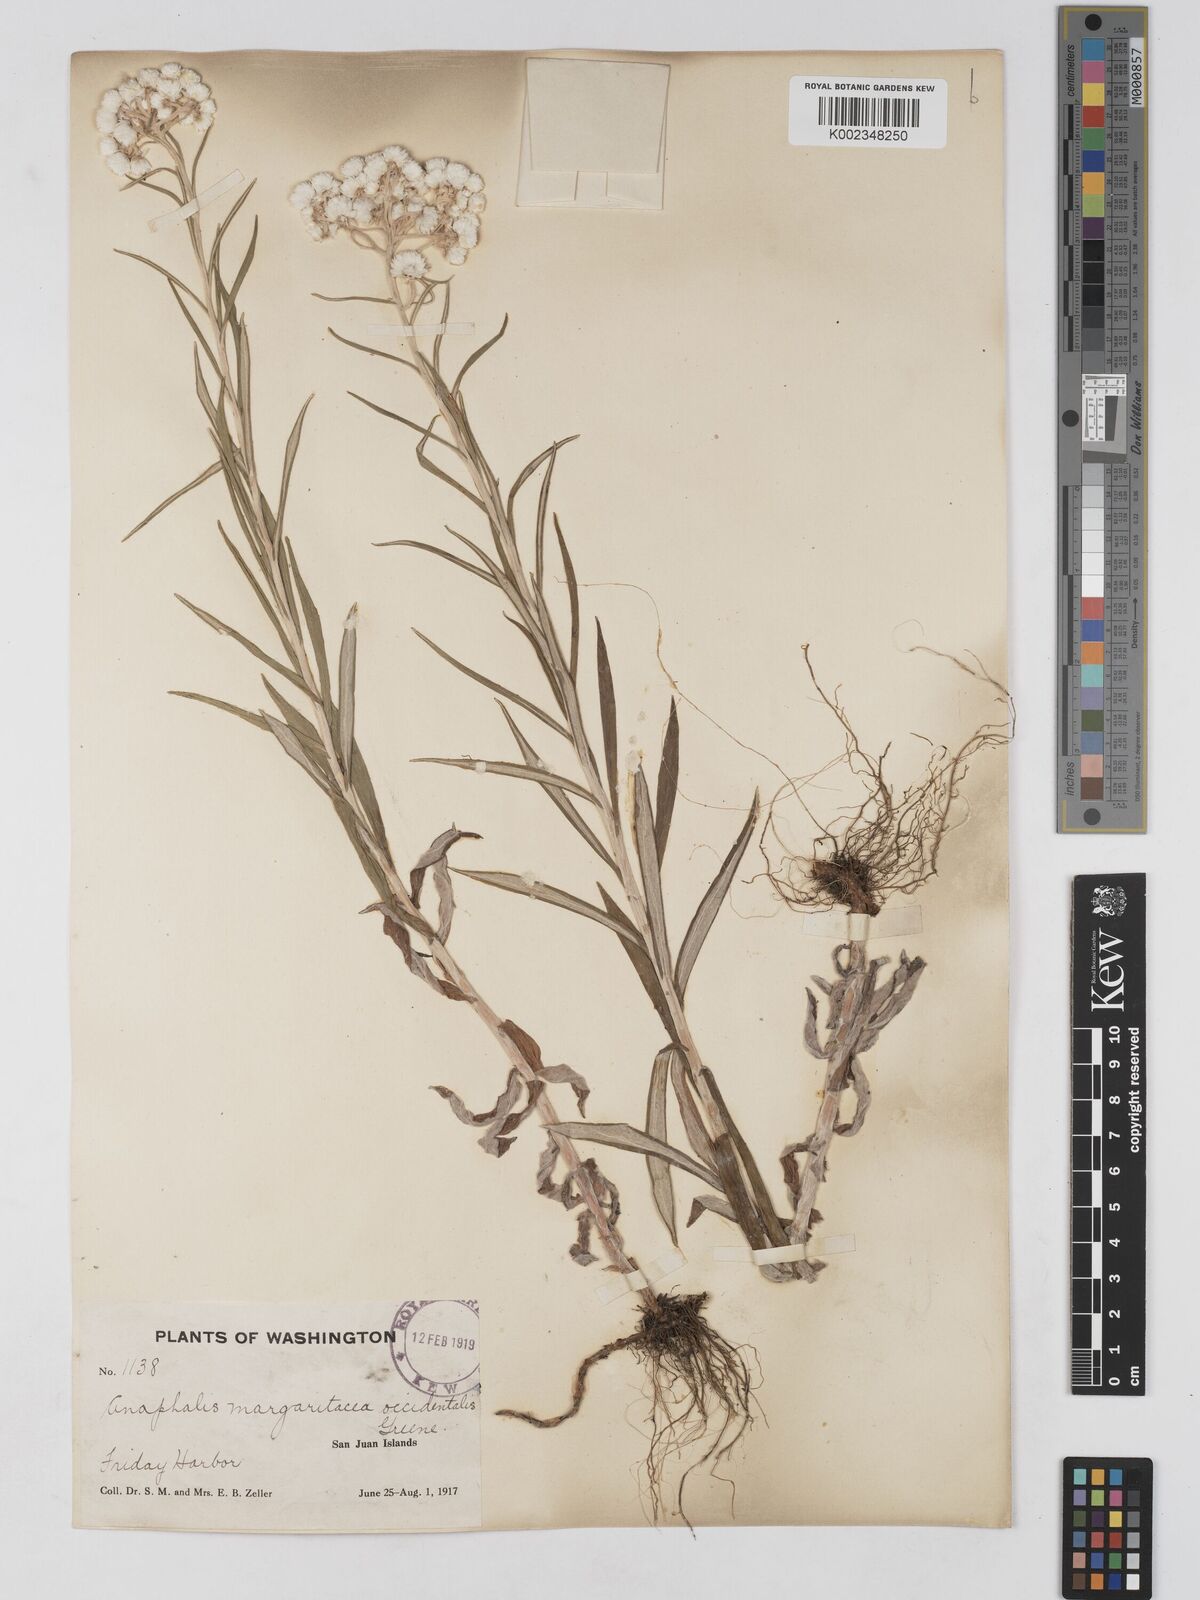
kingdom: Plantae
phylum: Tracheophyta
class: Magnoliopsida
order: Asterales
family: Asteraceae
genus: Anaphalis
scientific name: Anaphalis margaritacea
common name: Pearly everlasting
